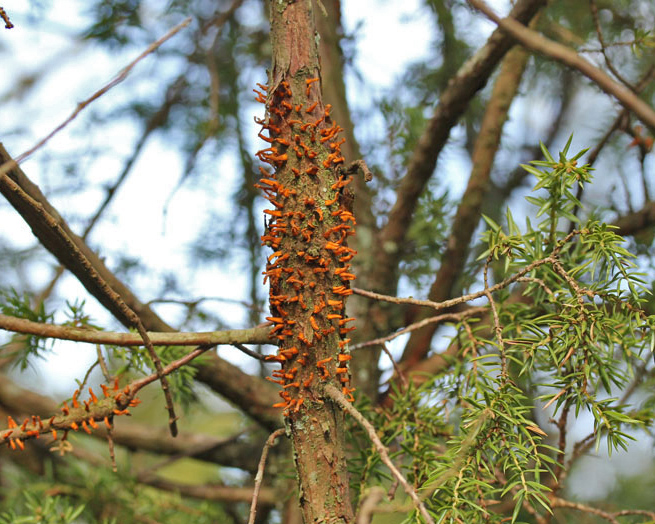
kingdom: Fungi
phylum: Basidiomycota
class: Pucciniomycetes
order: Pucciniales
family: Gymnosporangiaceae
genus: Gymnosporangium
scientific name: Gymnosporangium clavariiforme
